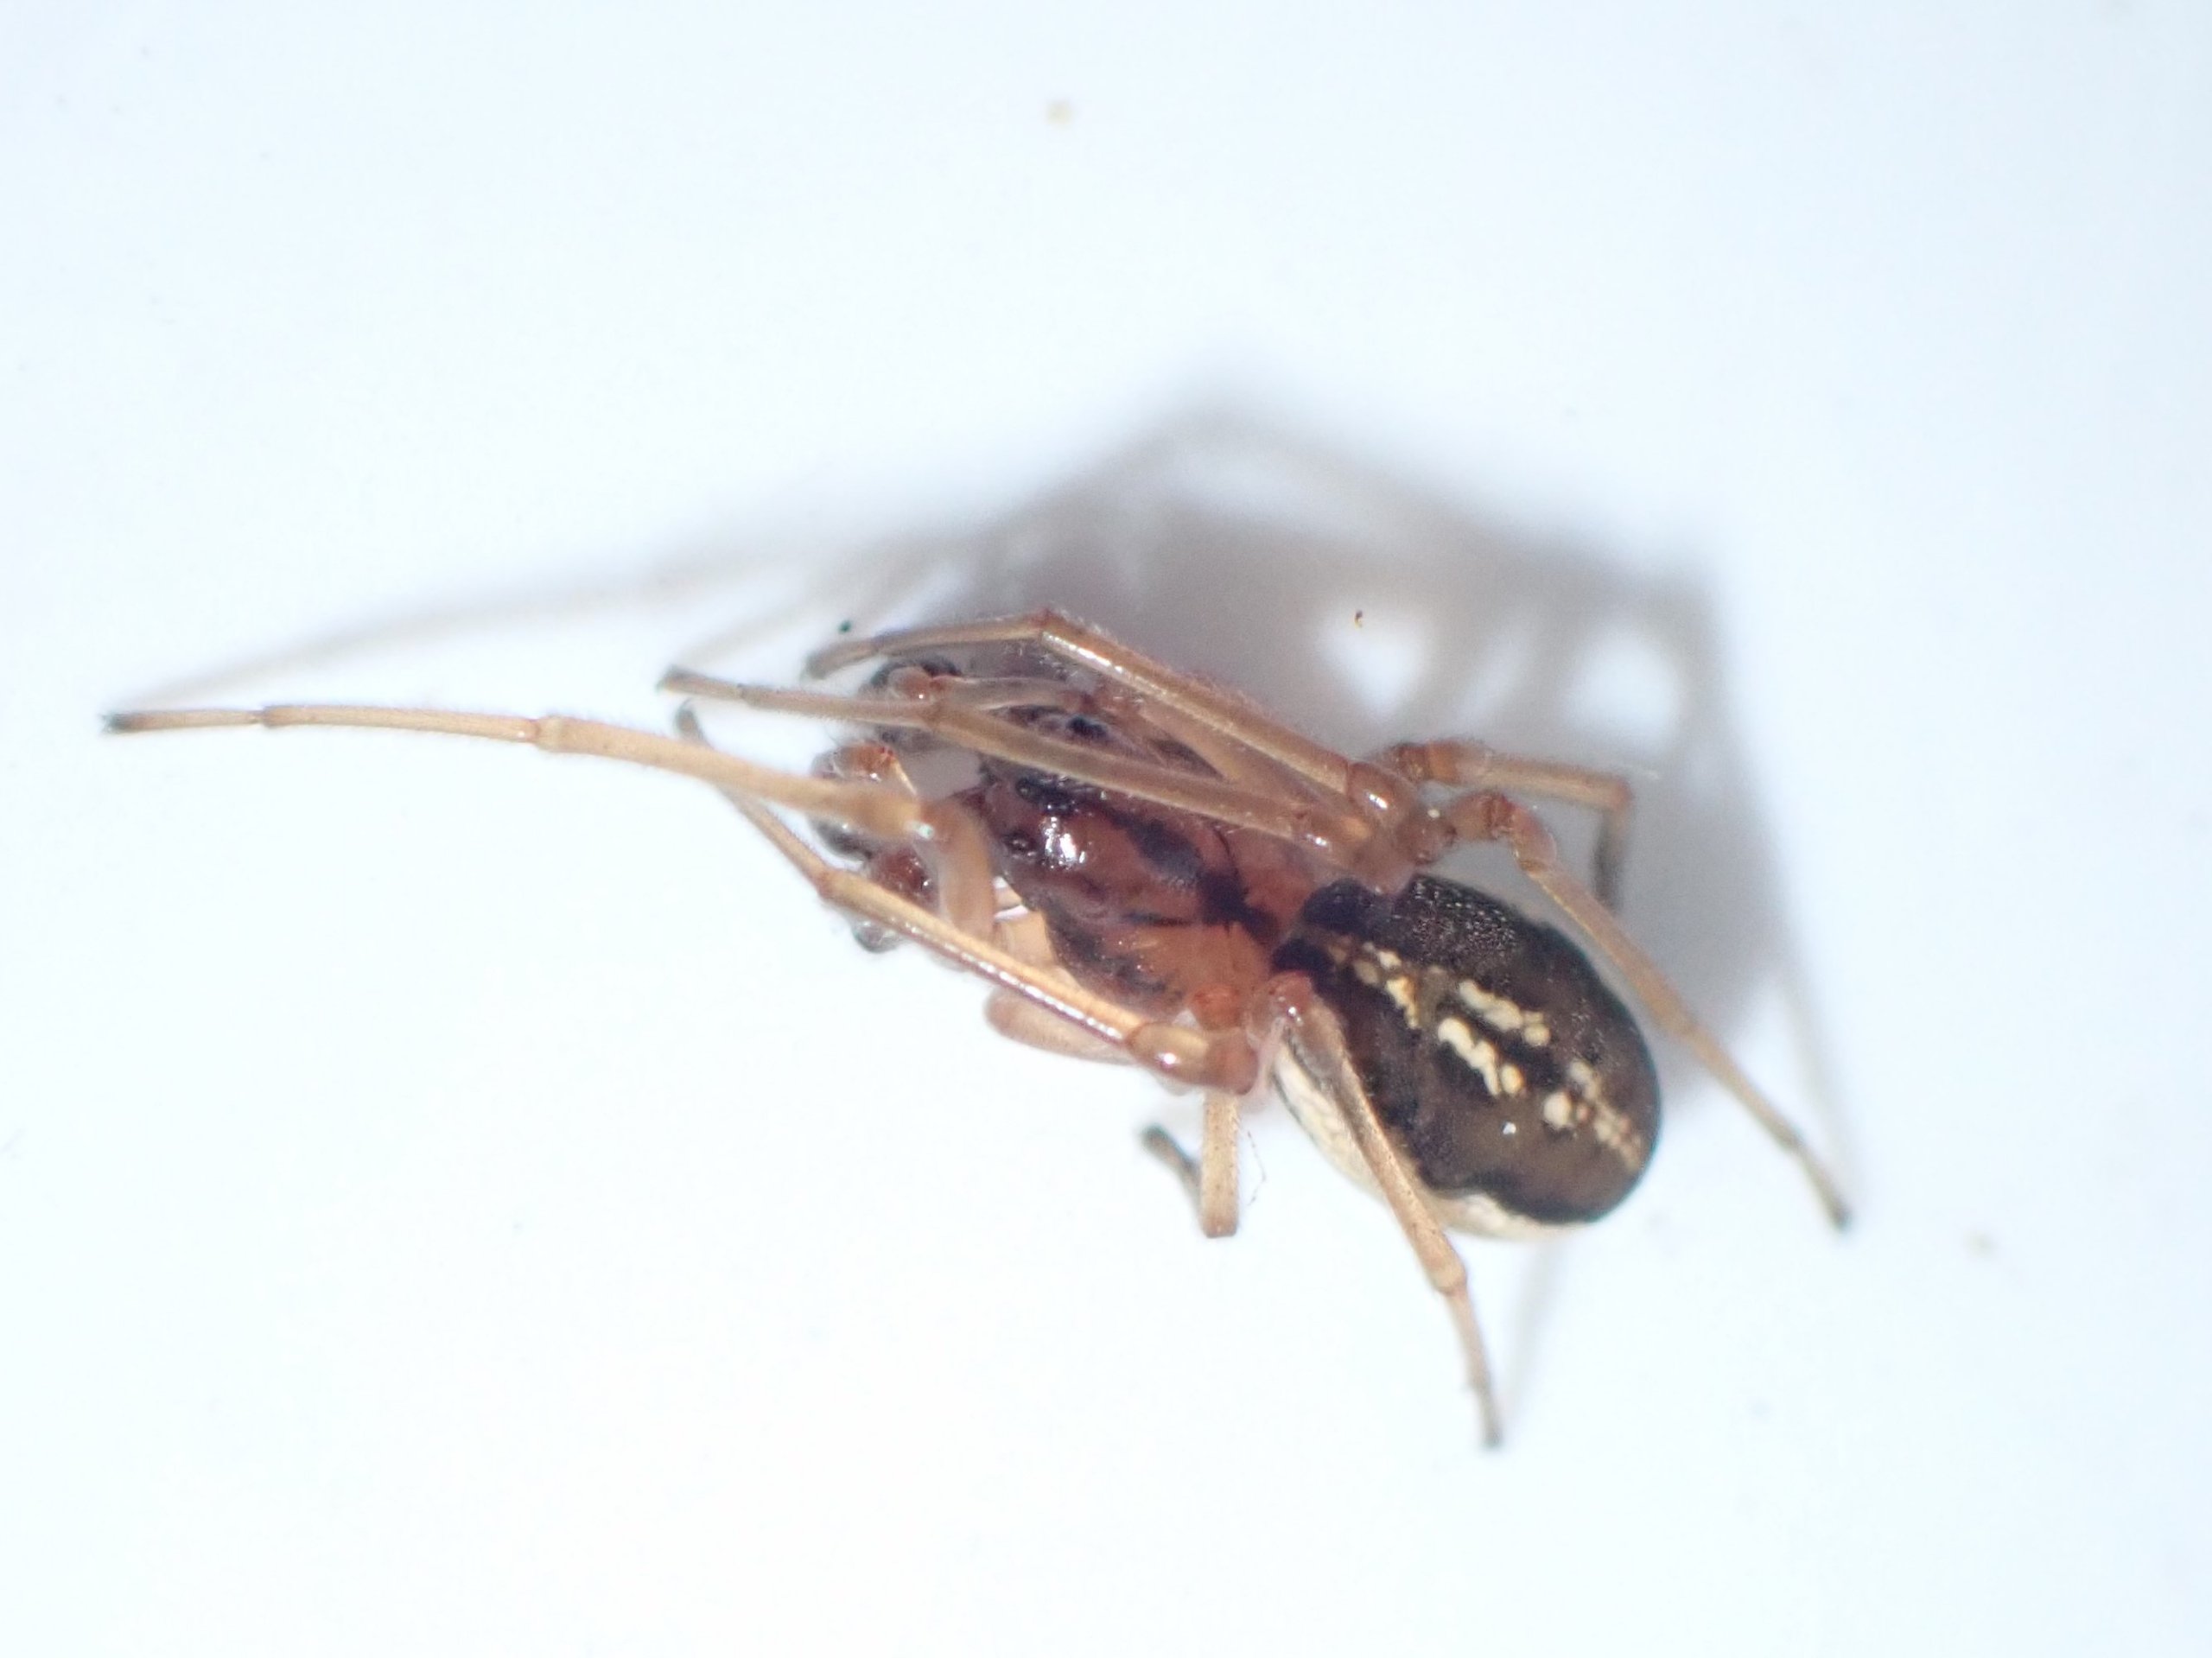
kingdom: Animalia
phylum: Arthropoda
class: Arachnida
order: Araneae
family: Tetragnathidae
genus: Pachygnatha
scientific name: Pachygnatha clercki
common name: Søtykkæbe
